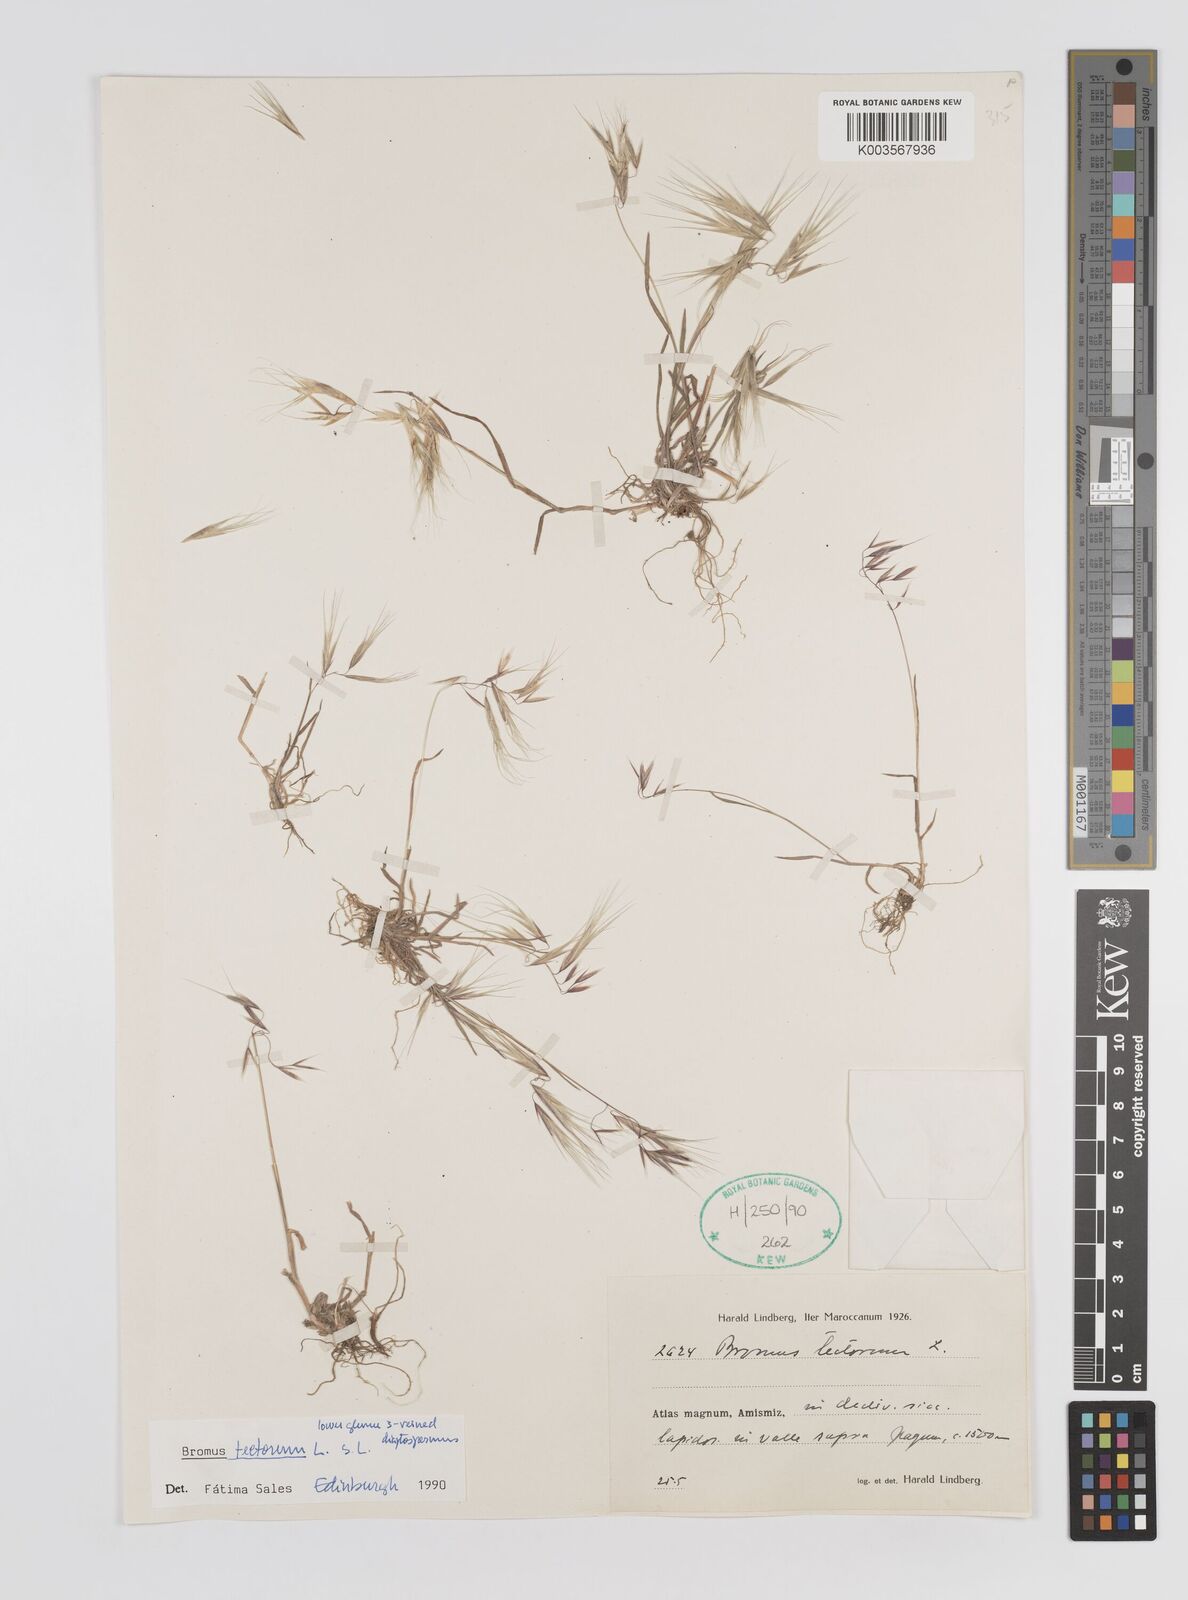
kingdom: Plantae
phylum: Tracheophyta
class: Liliopsida
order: Poales
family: Poaceae
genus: Bromus
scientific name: Bromus tectorum
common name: Cheatgrass
